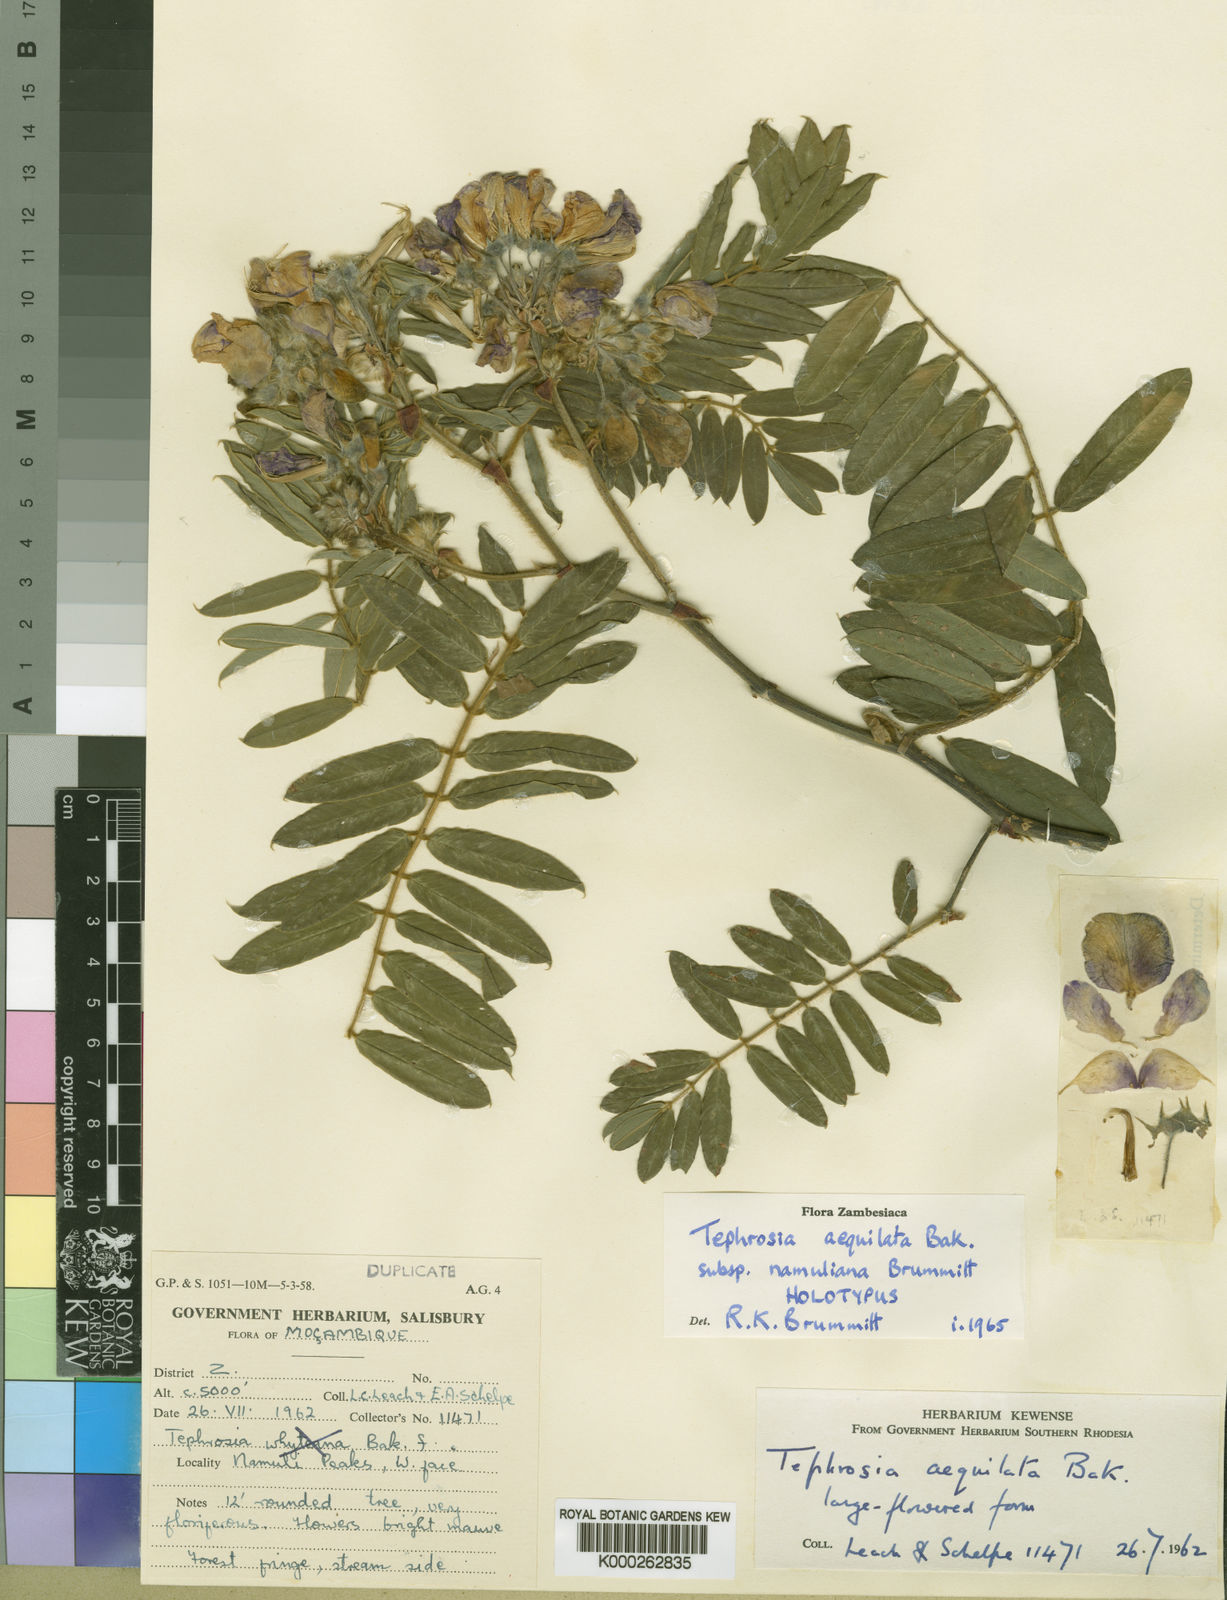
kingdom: Plantae
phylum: Tracheophyta
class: Magnoliopsida
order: Fabales
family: Fabaceae
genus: Tephrosia
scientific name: Tephrosia aequilata
